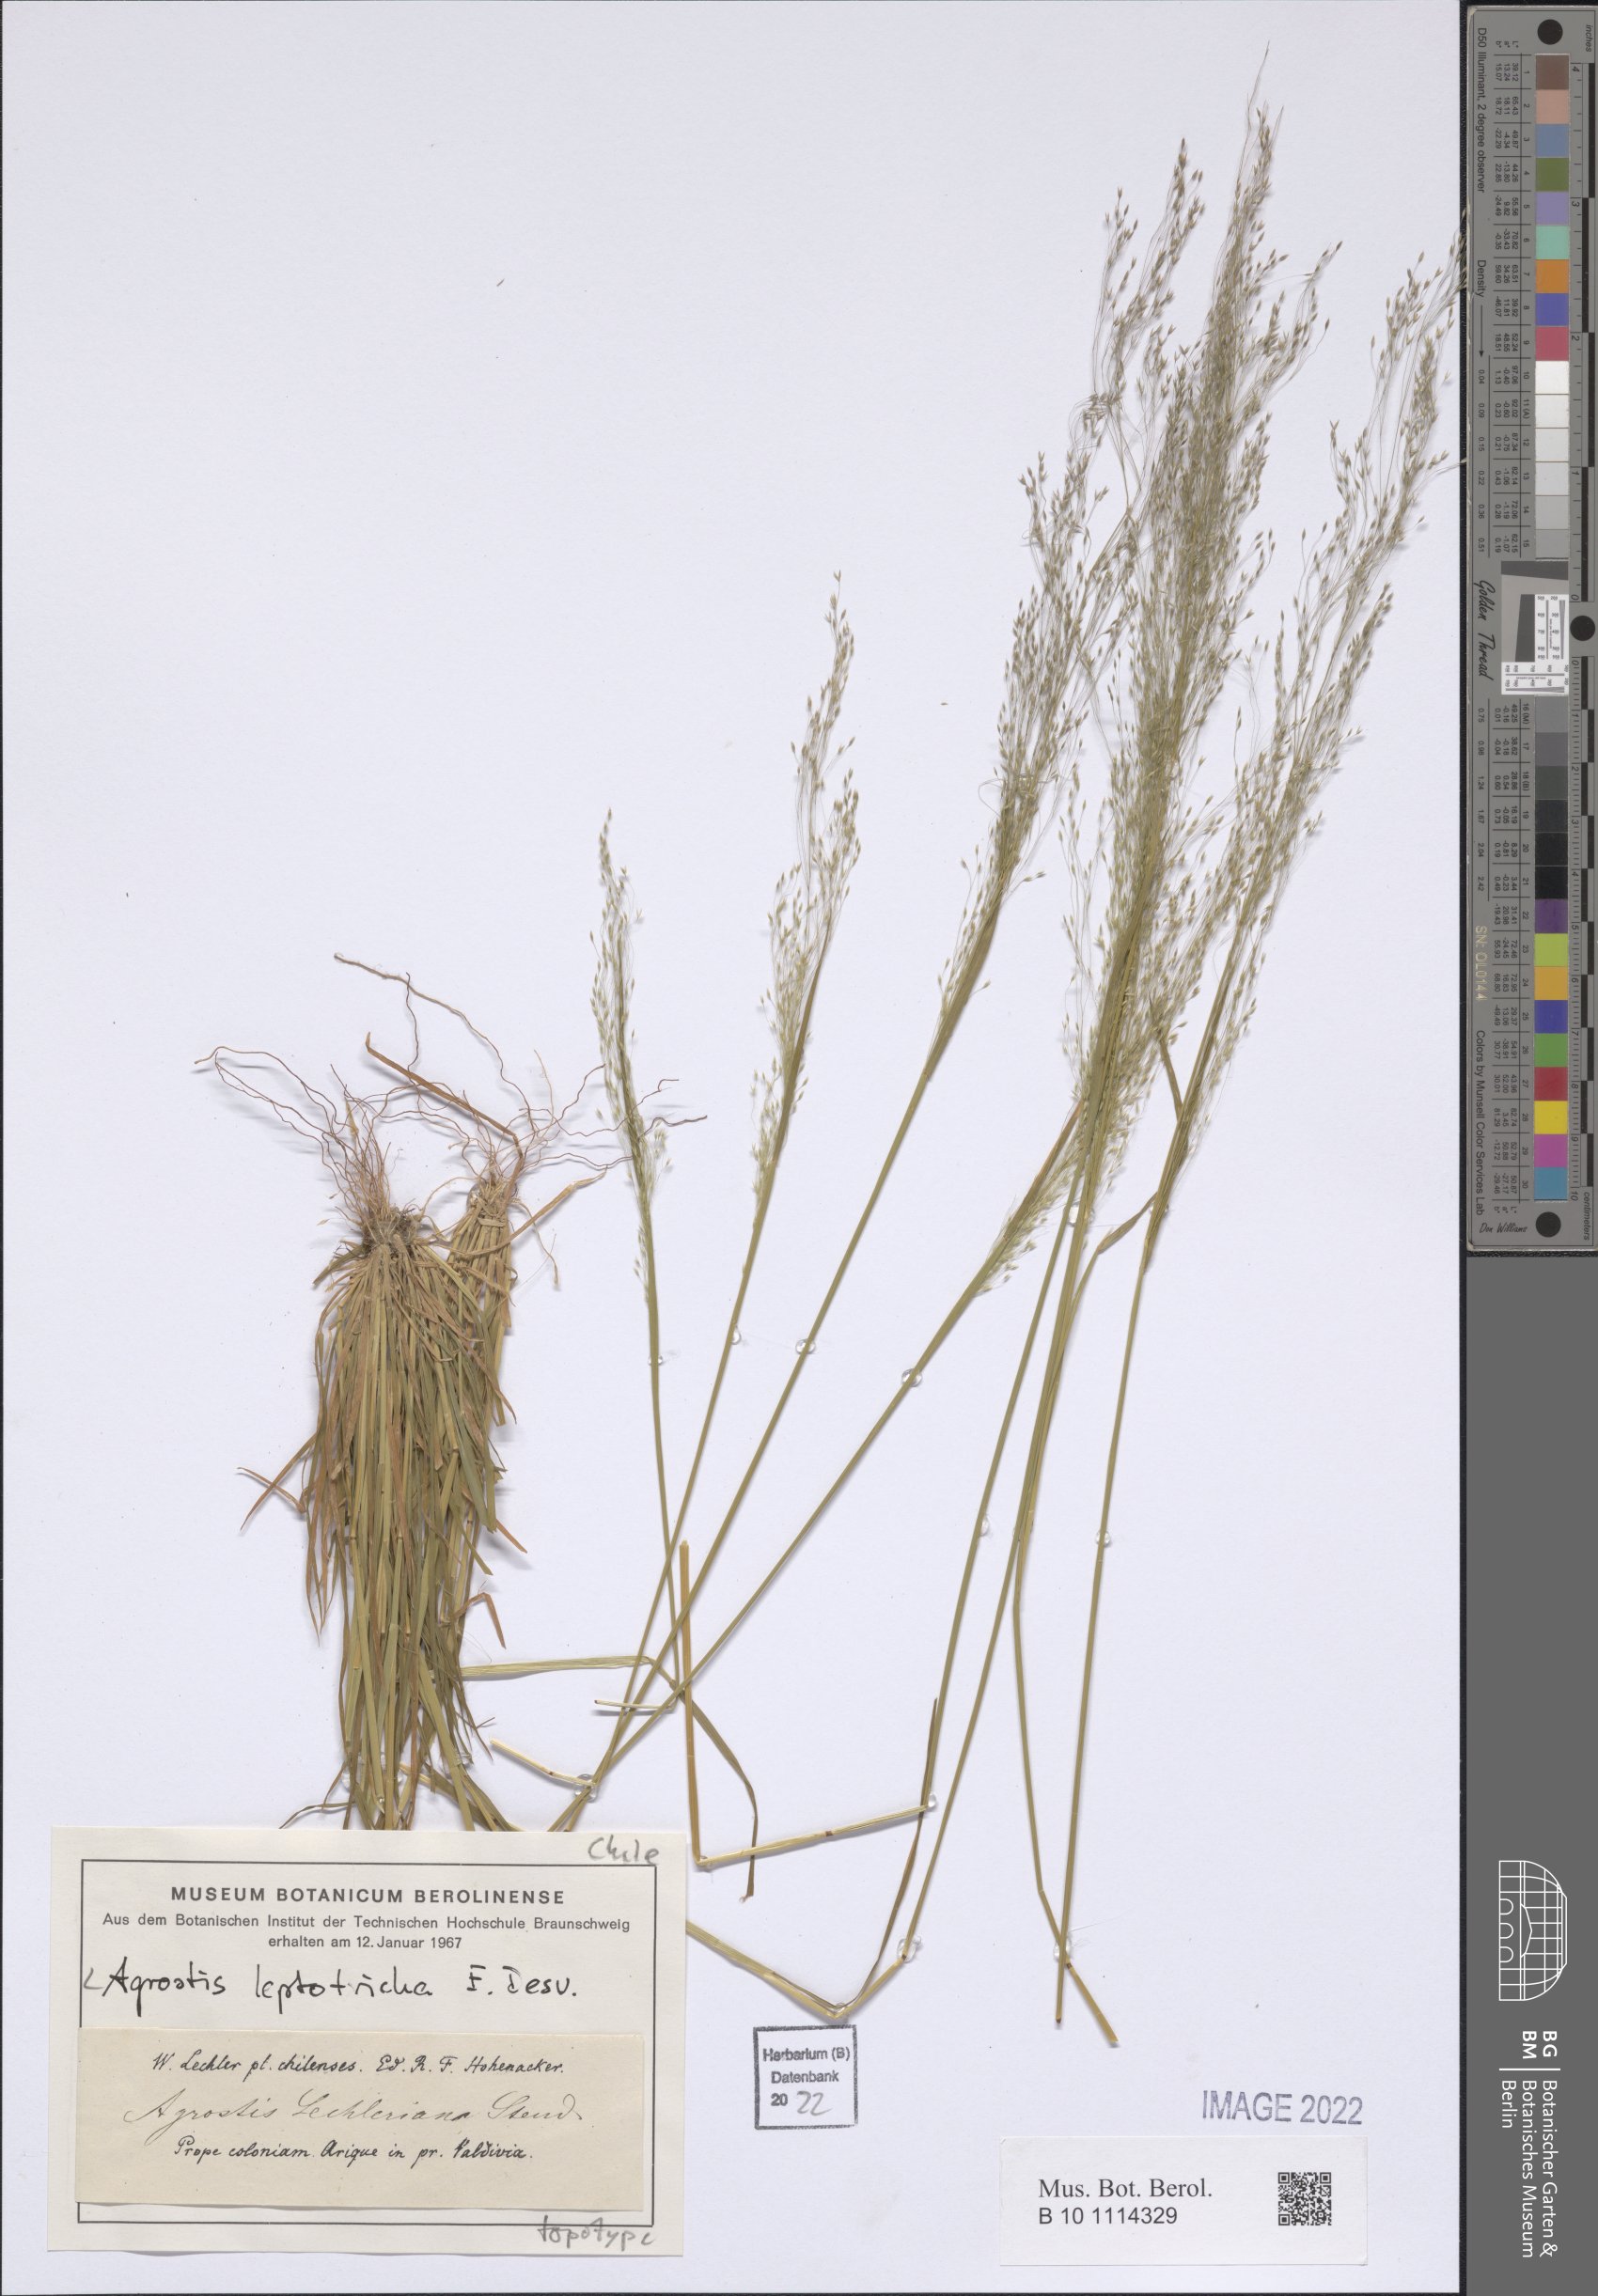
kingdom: Plantae
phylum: Tracheophyta
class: Liliopsida
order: Poales
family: Poaceae
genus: Agrostis
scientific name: Agrostis leptotricha
